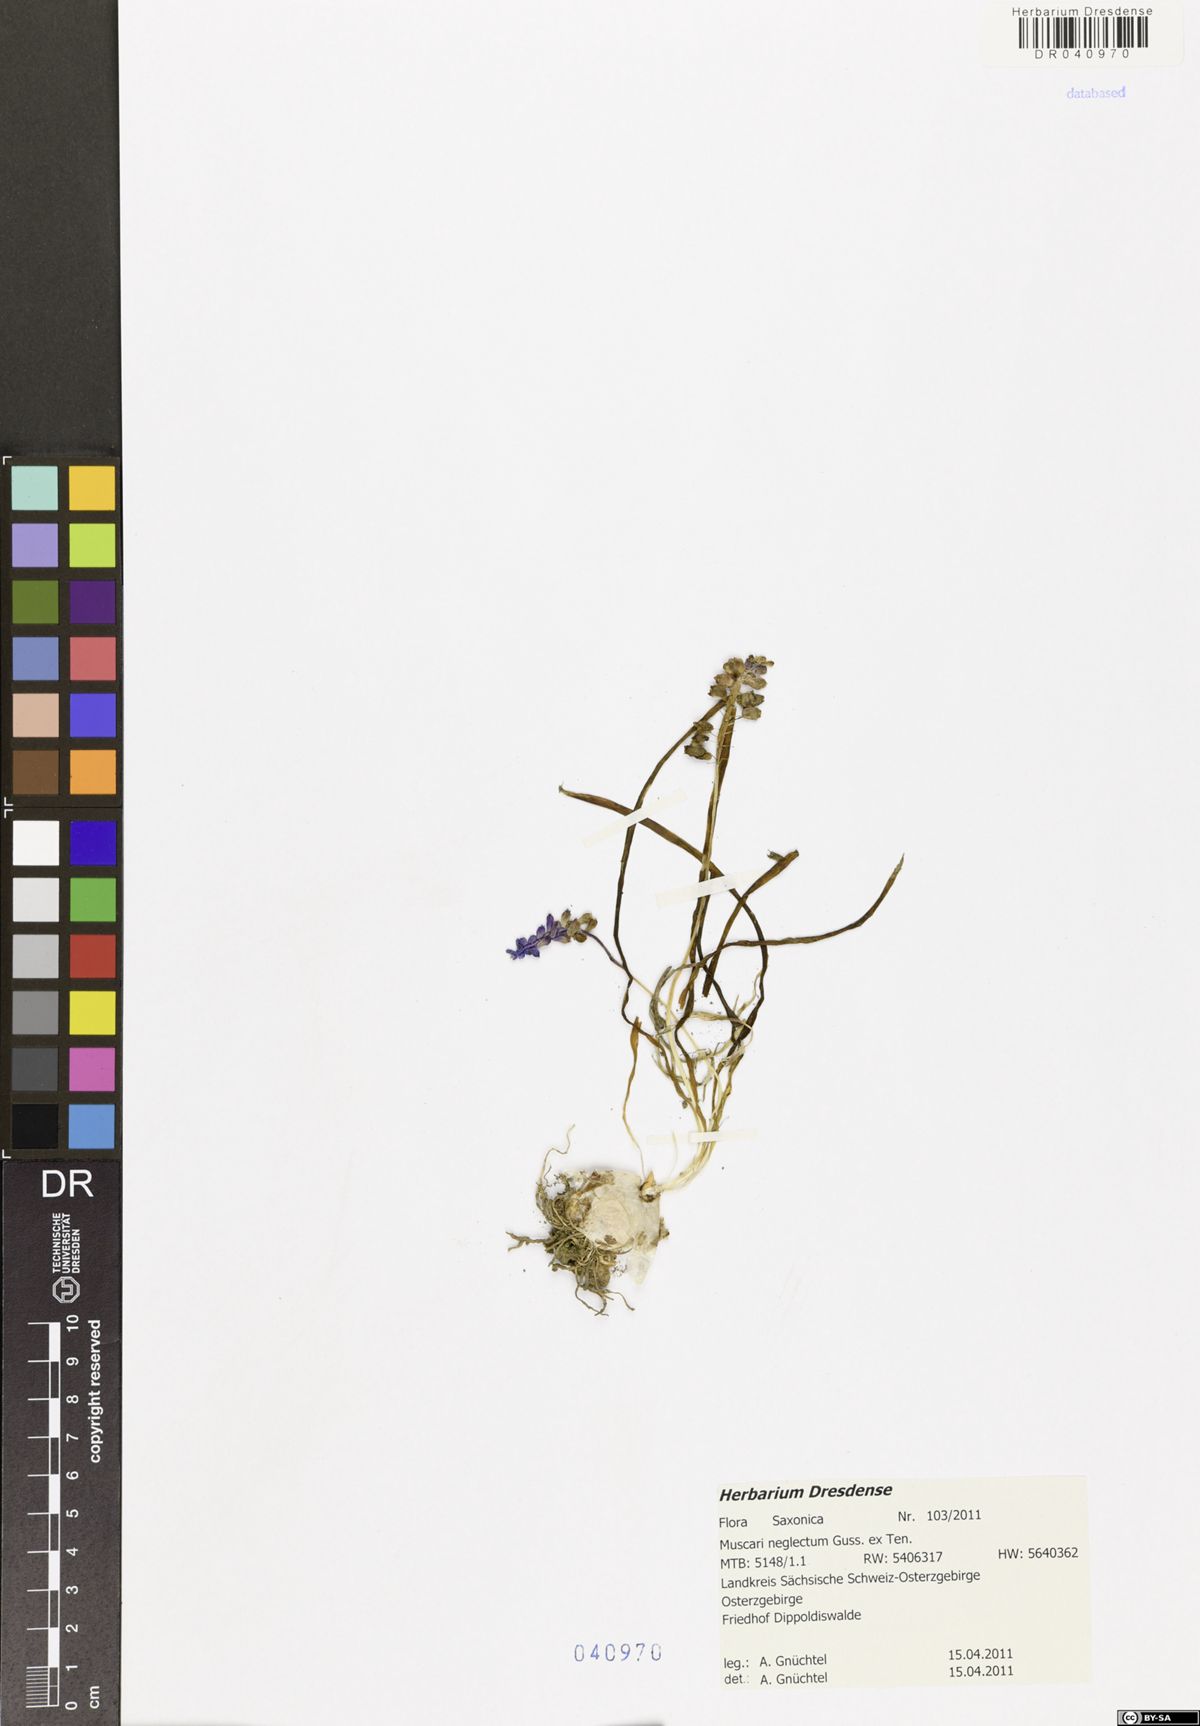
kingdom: Plantae
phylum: Tracheophyta
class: Liliopsida
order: Asparagales
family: Asparagaceae
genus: Muscari
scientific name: Muscari neglectum
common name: Grape-hyacinth
